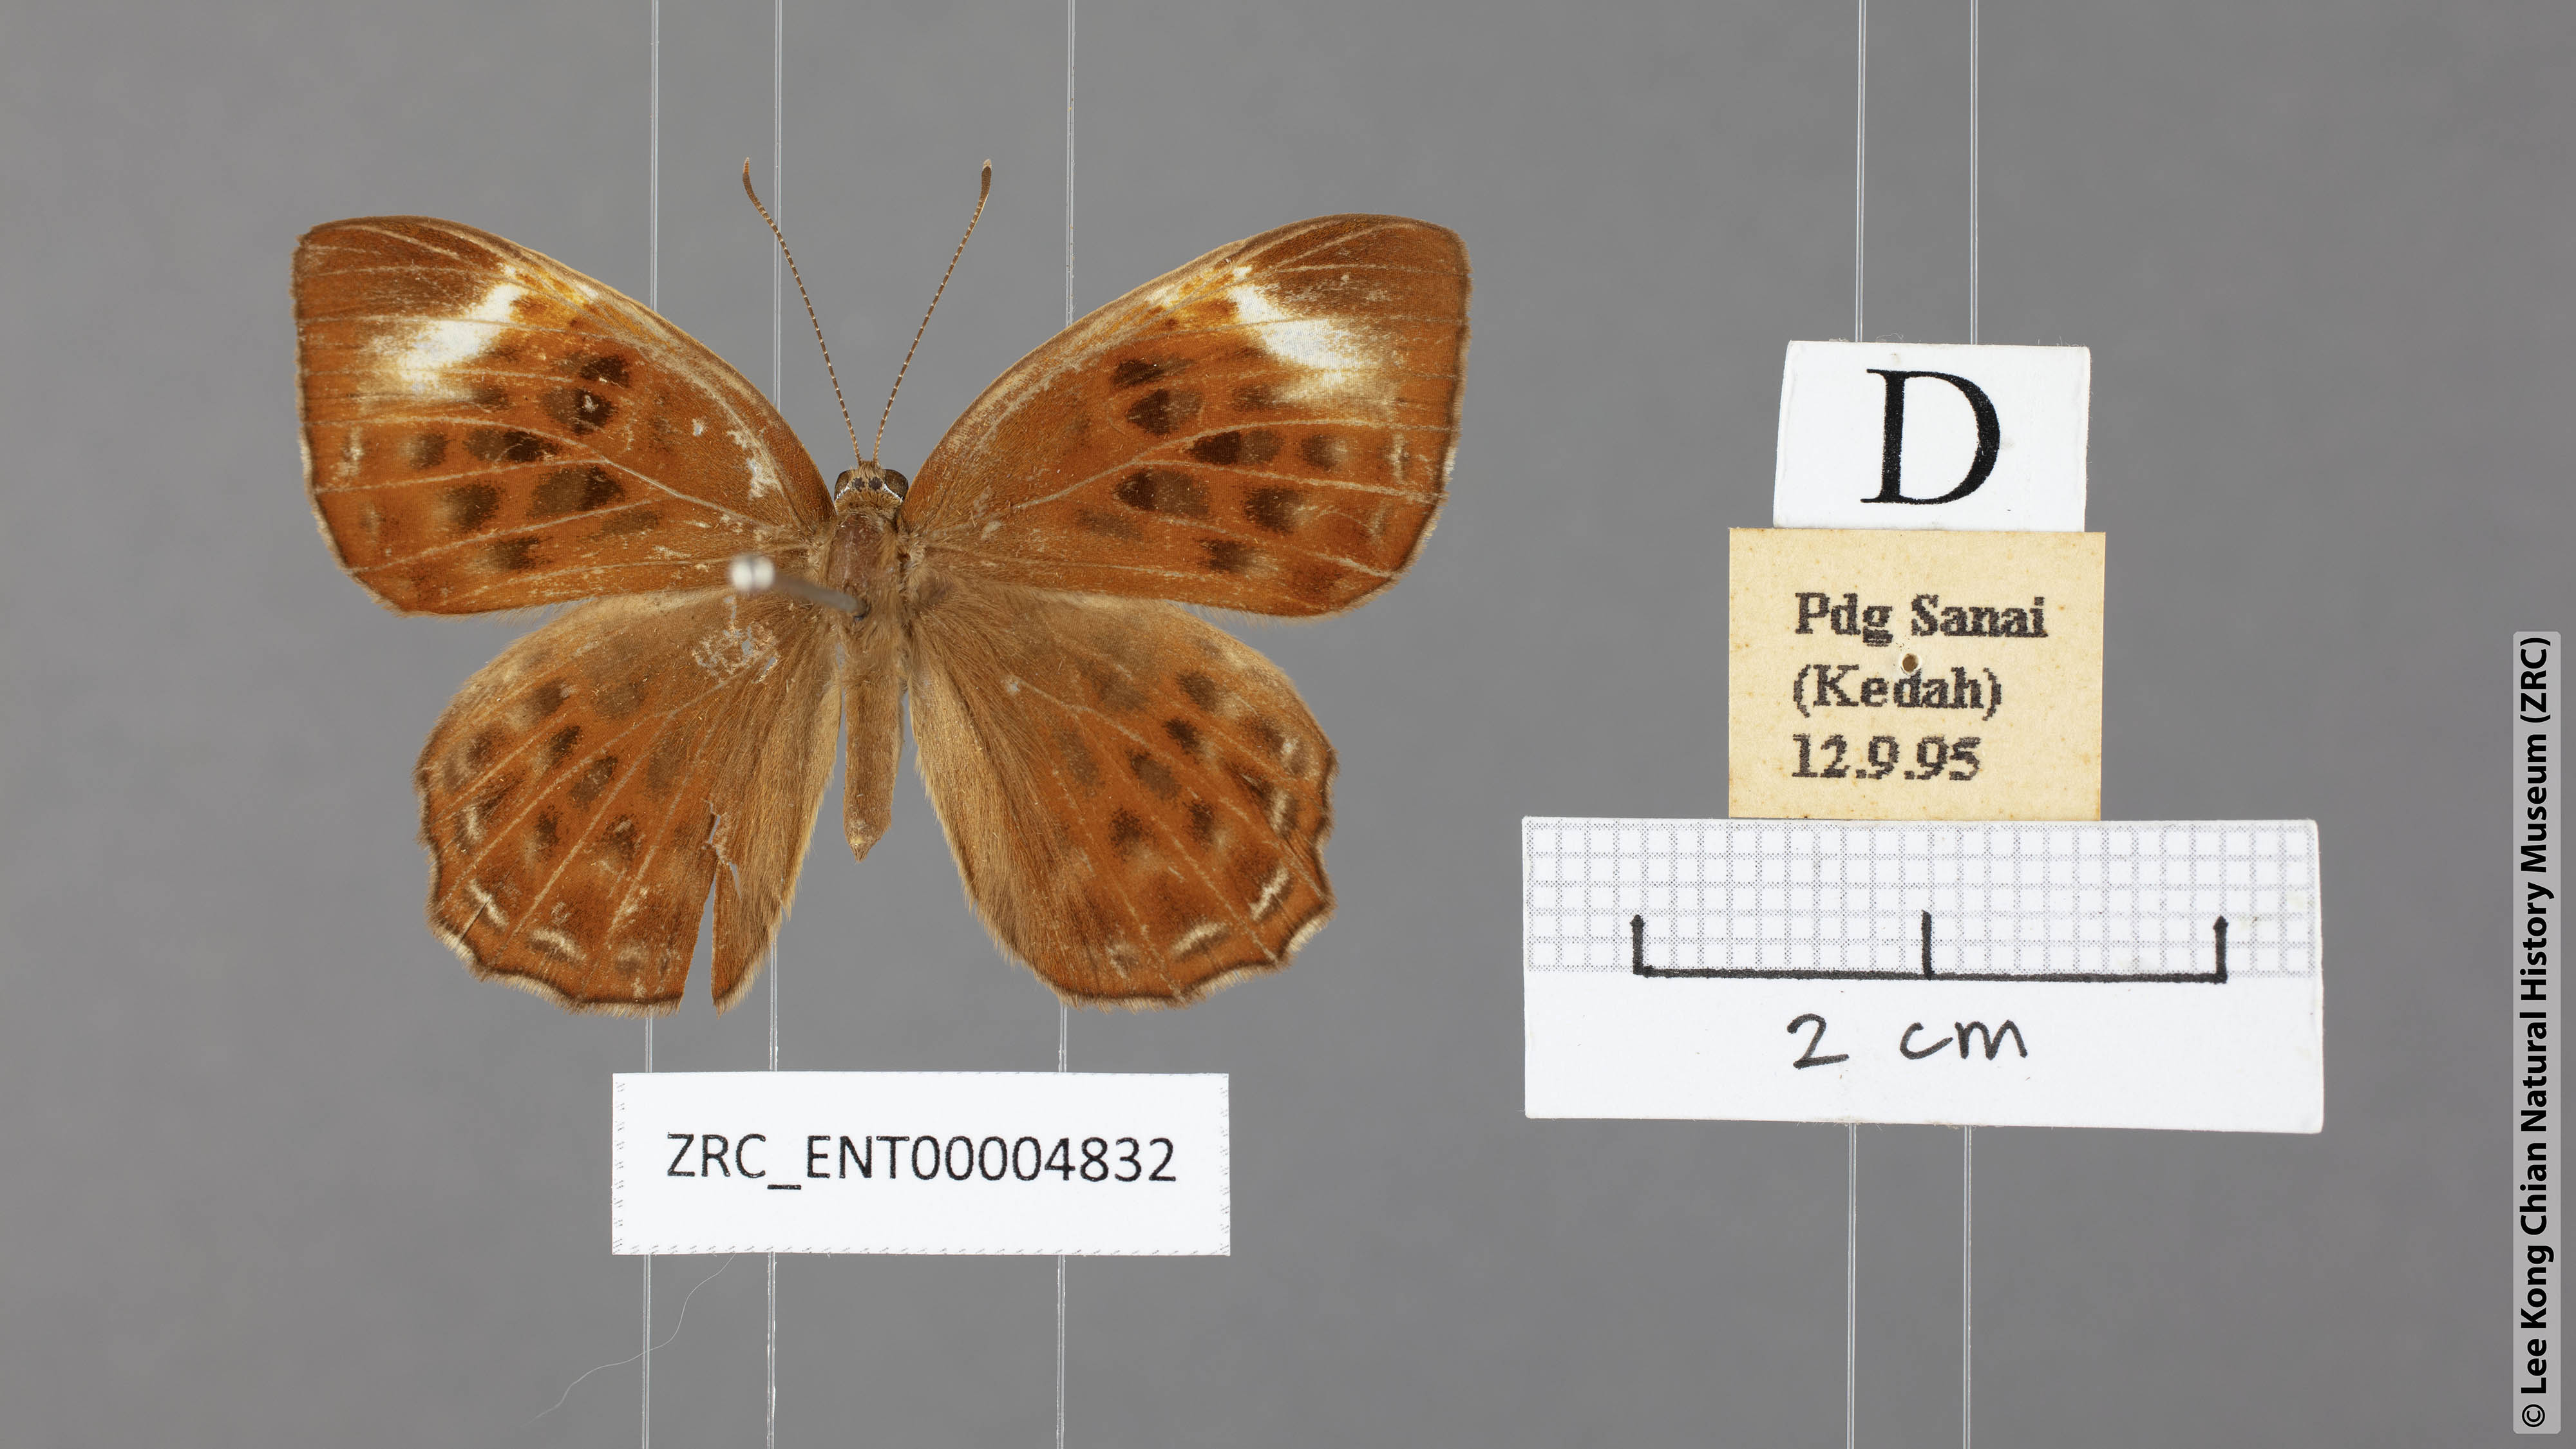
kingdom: Animalia
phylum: Arthropoda
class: Insecta
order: Lepidoptera
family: Erebidae
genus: Dysschema
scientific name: Dysschema
